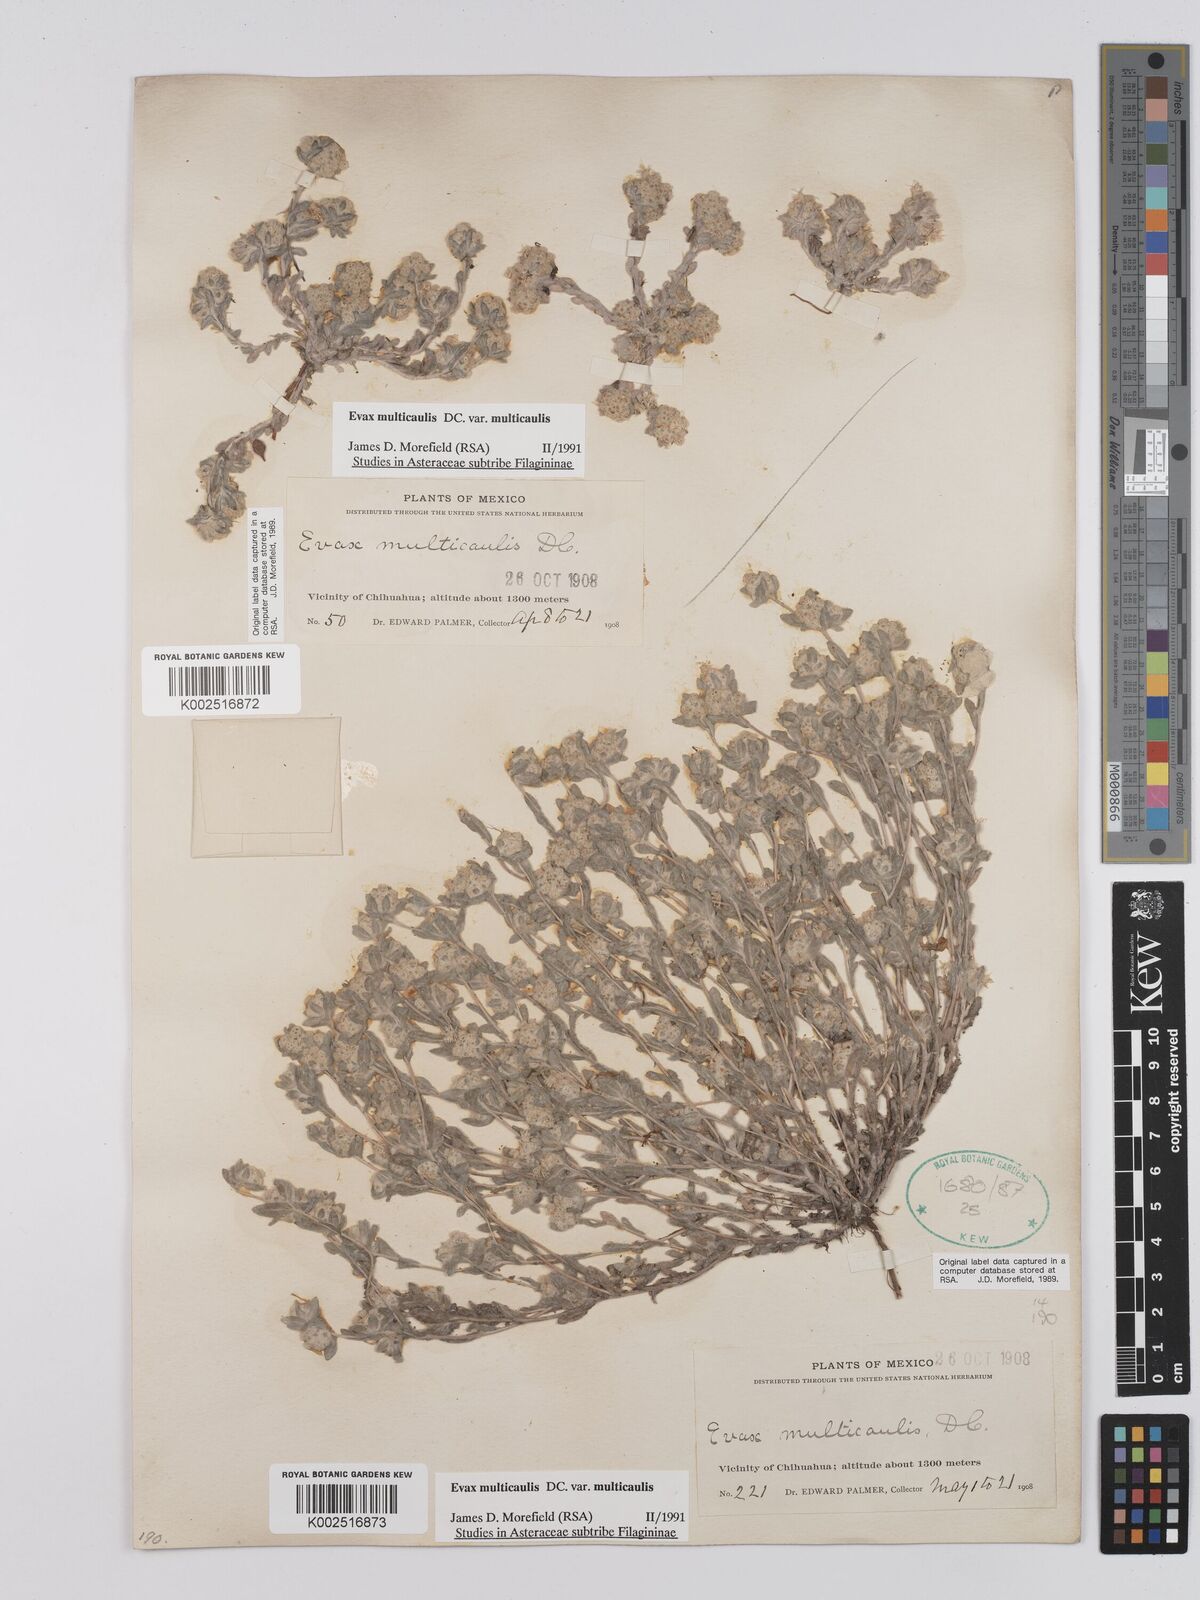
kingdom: Plantae
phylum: Tracheophyta
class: Magnoliopsida
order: Asterales
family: Asteraceae
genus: Filago
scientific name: Filago
